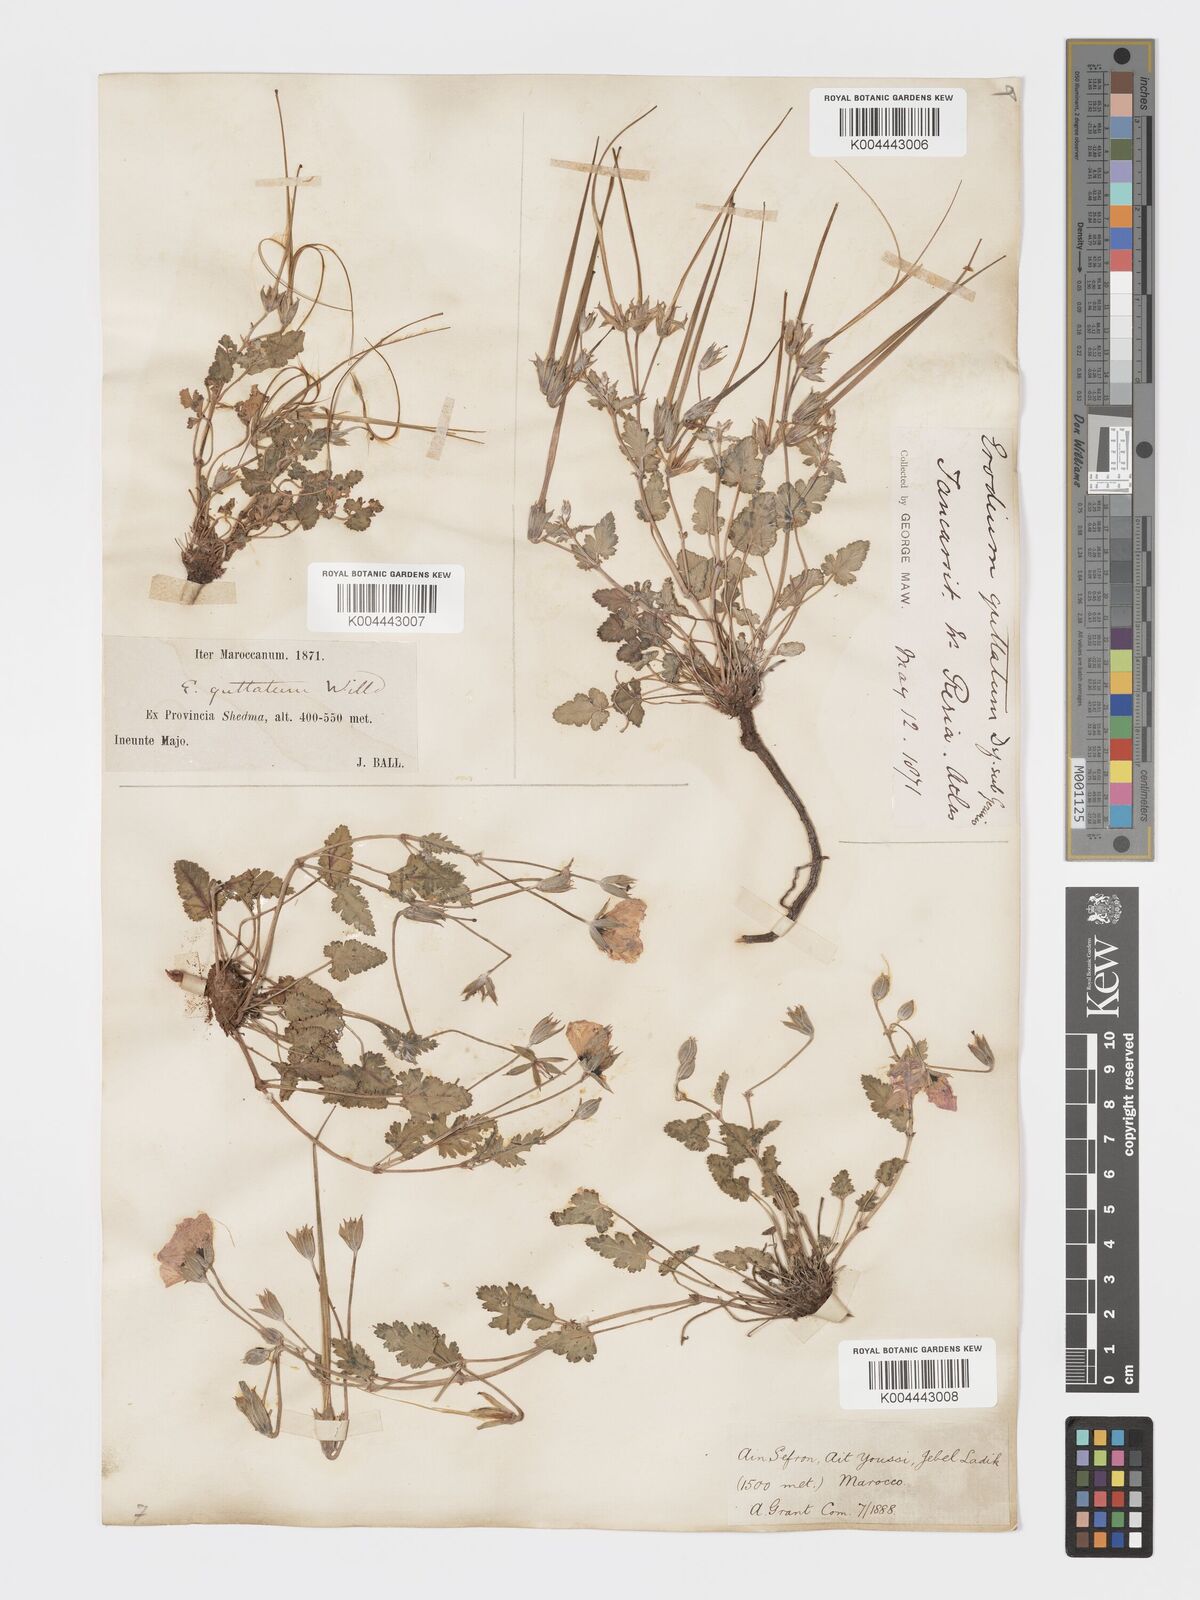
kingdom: Plantae
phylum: Tracheophyta
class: Magnoliopsida
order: Geraniales
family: Geraniaceae
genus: Erodium
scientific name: Erodium guttatum
